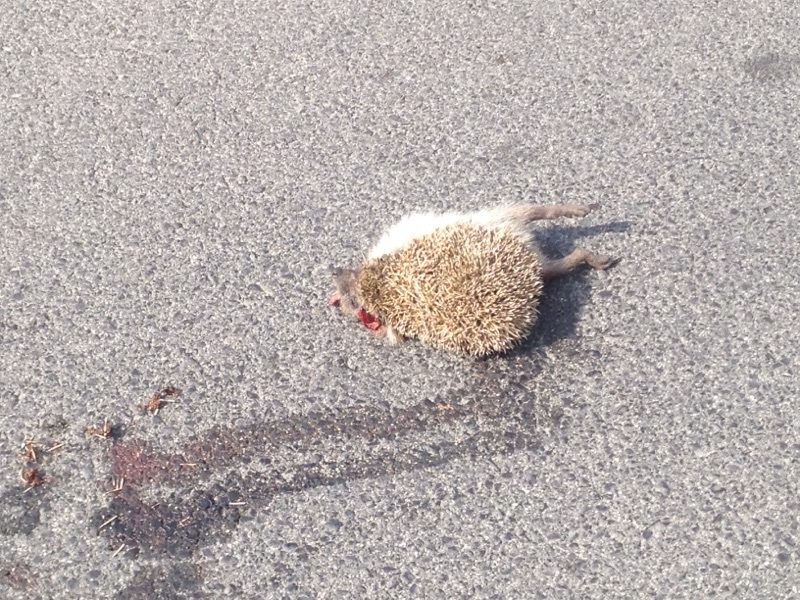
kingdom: Animalia
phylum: Chordata
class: Mammalia
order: Erinaceomorpha
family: Erinaceidae
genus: Erinaceus
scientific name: Erinaceus
